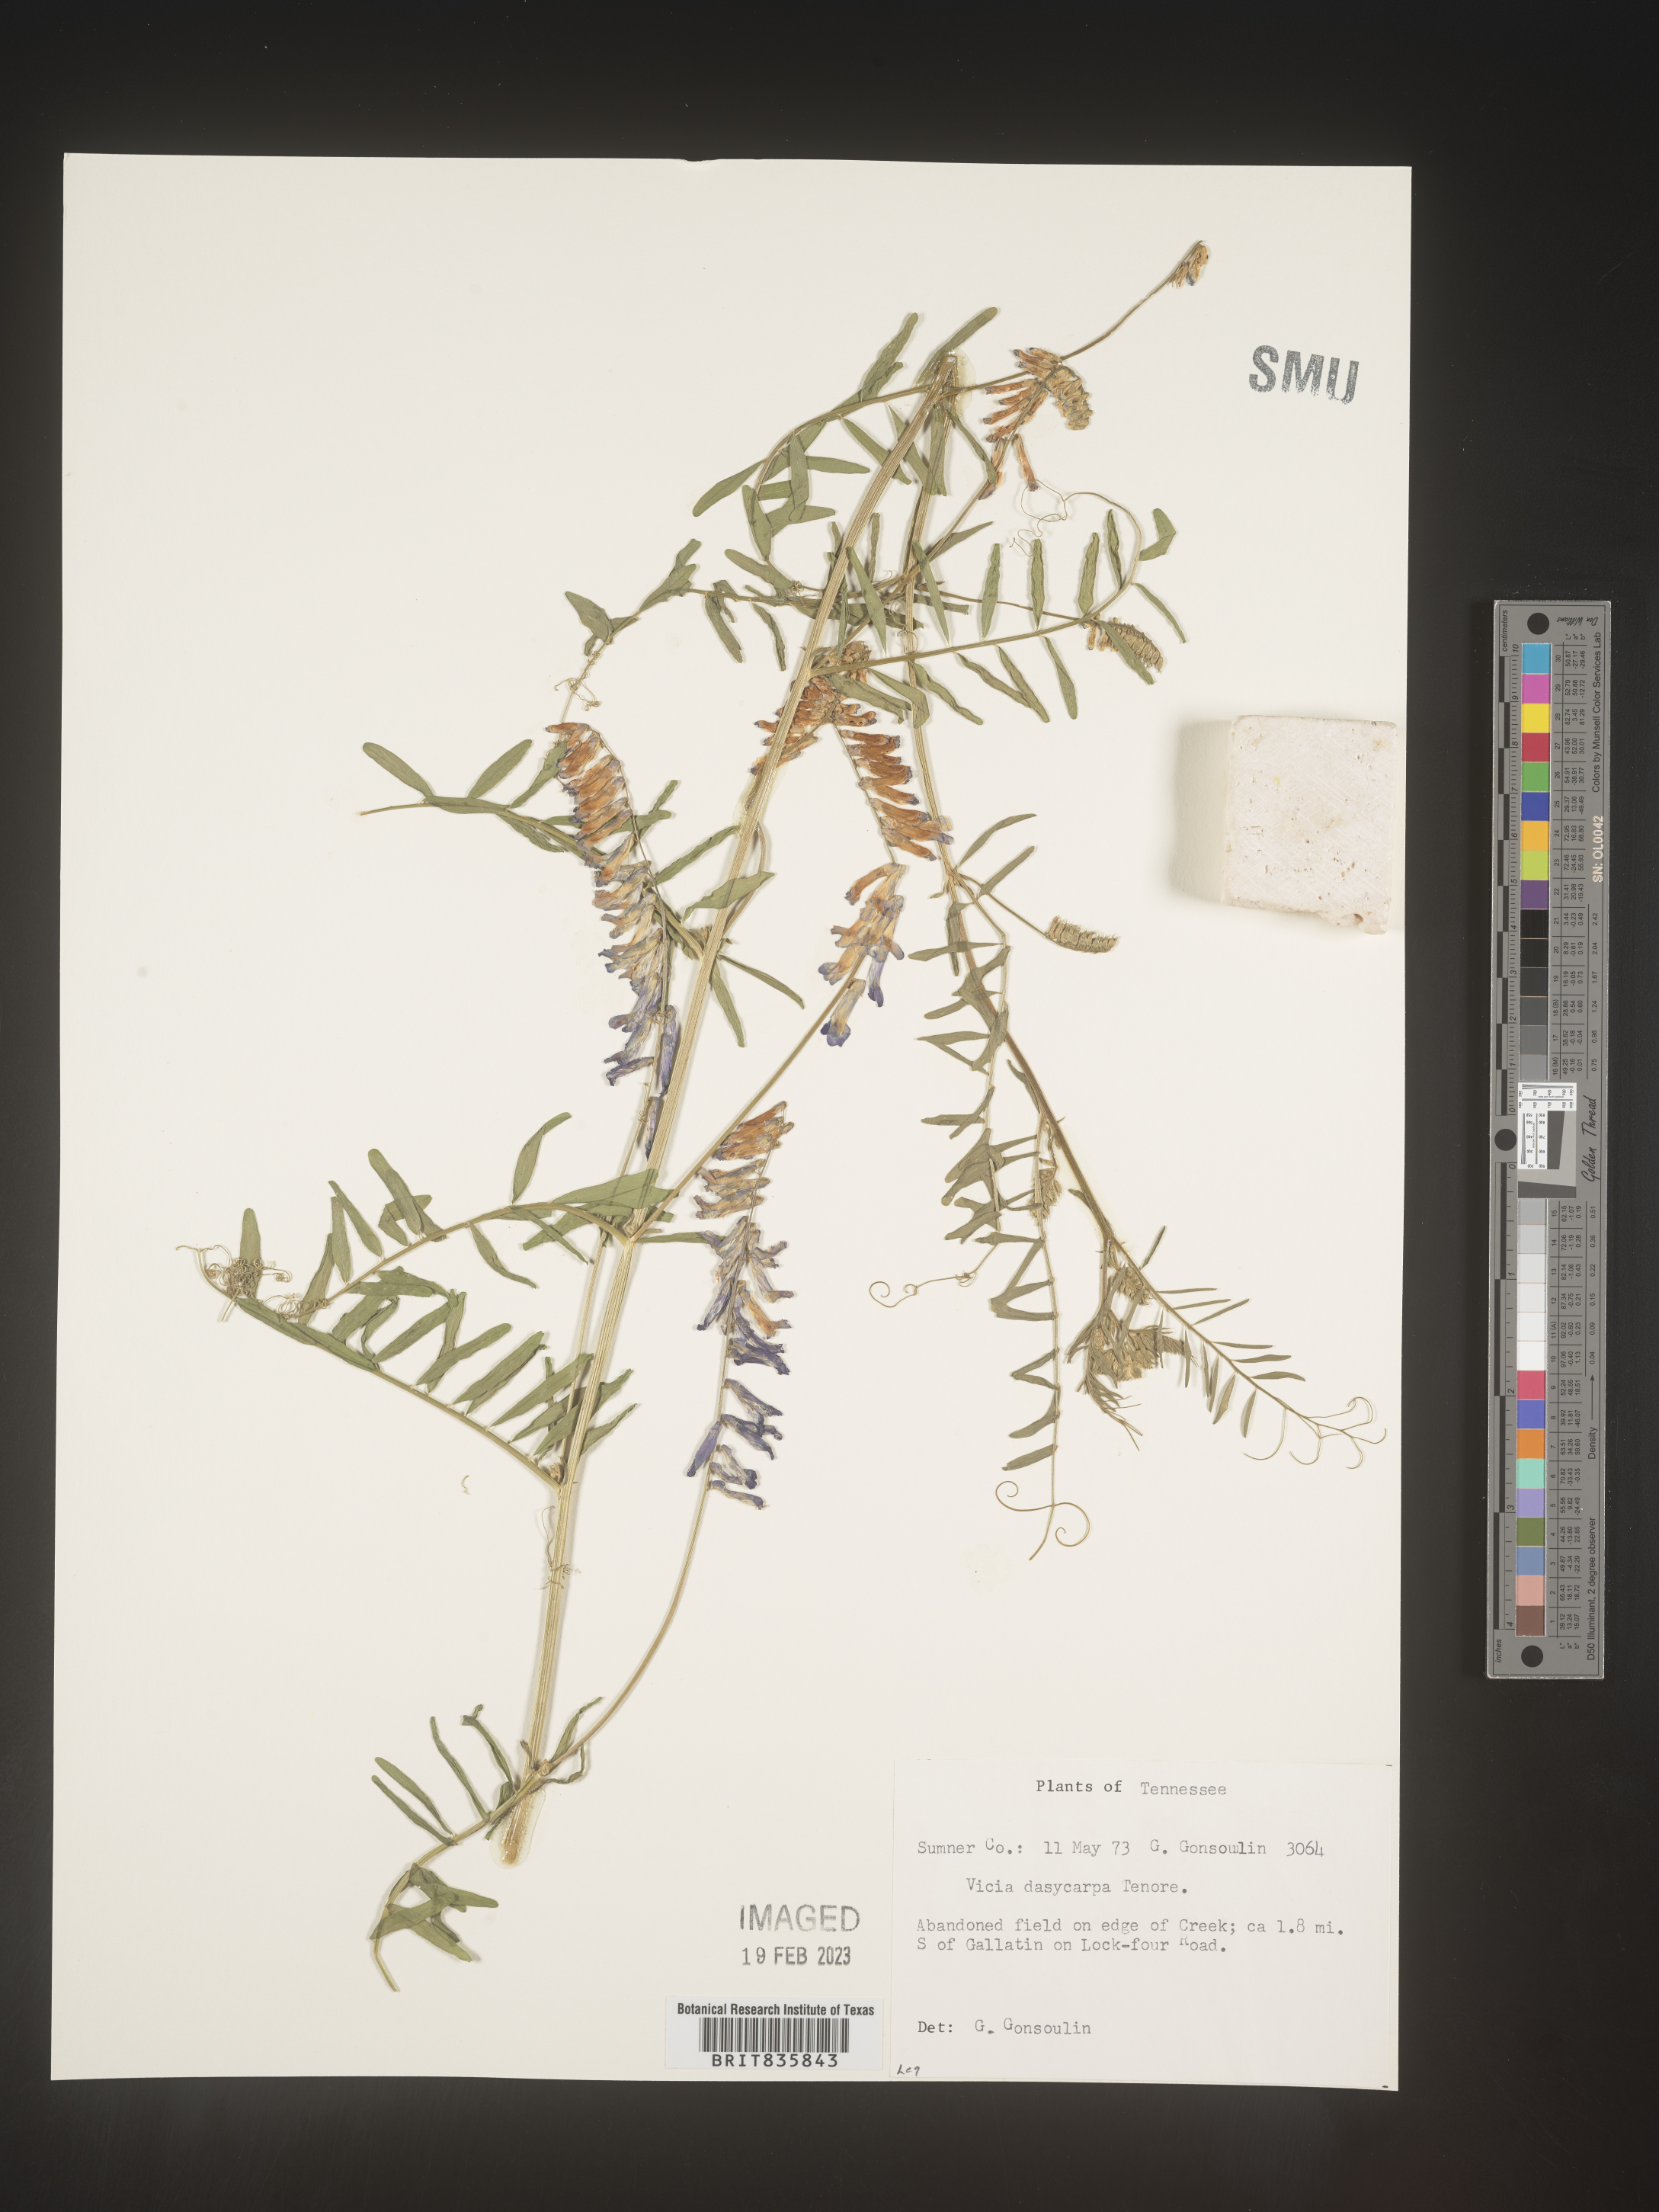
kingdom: Plantae
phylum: Tracheophyta
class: Magnoliopsida
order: Fabales
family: Fabaceae
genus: Vicia
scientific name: Vicia villosa
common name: Fodder vetch
